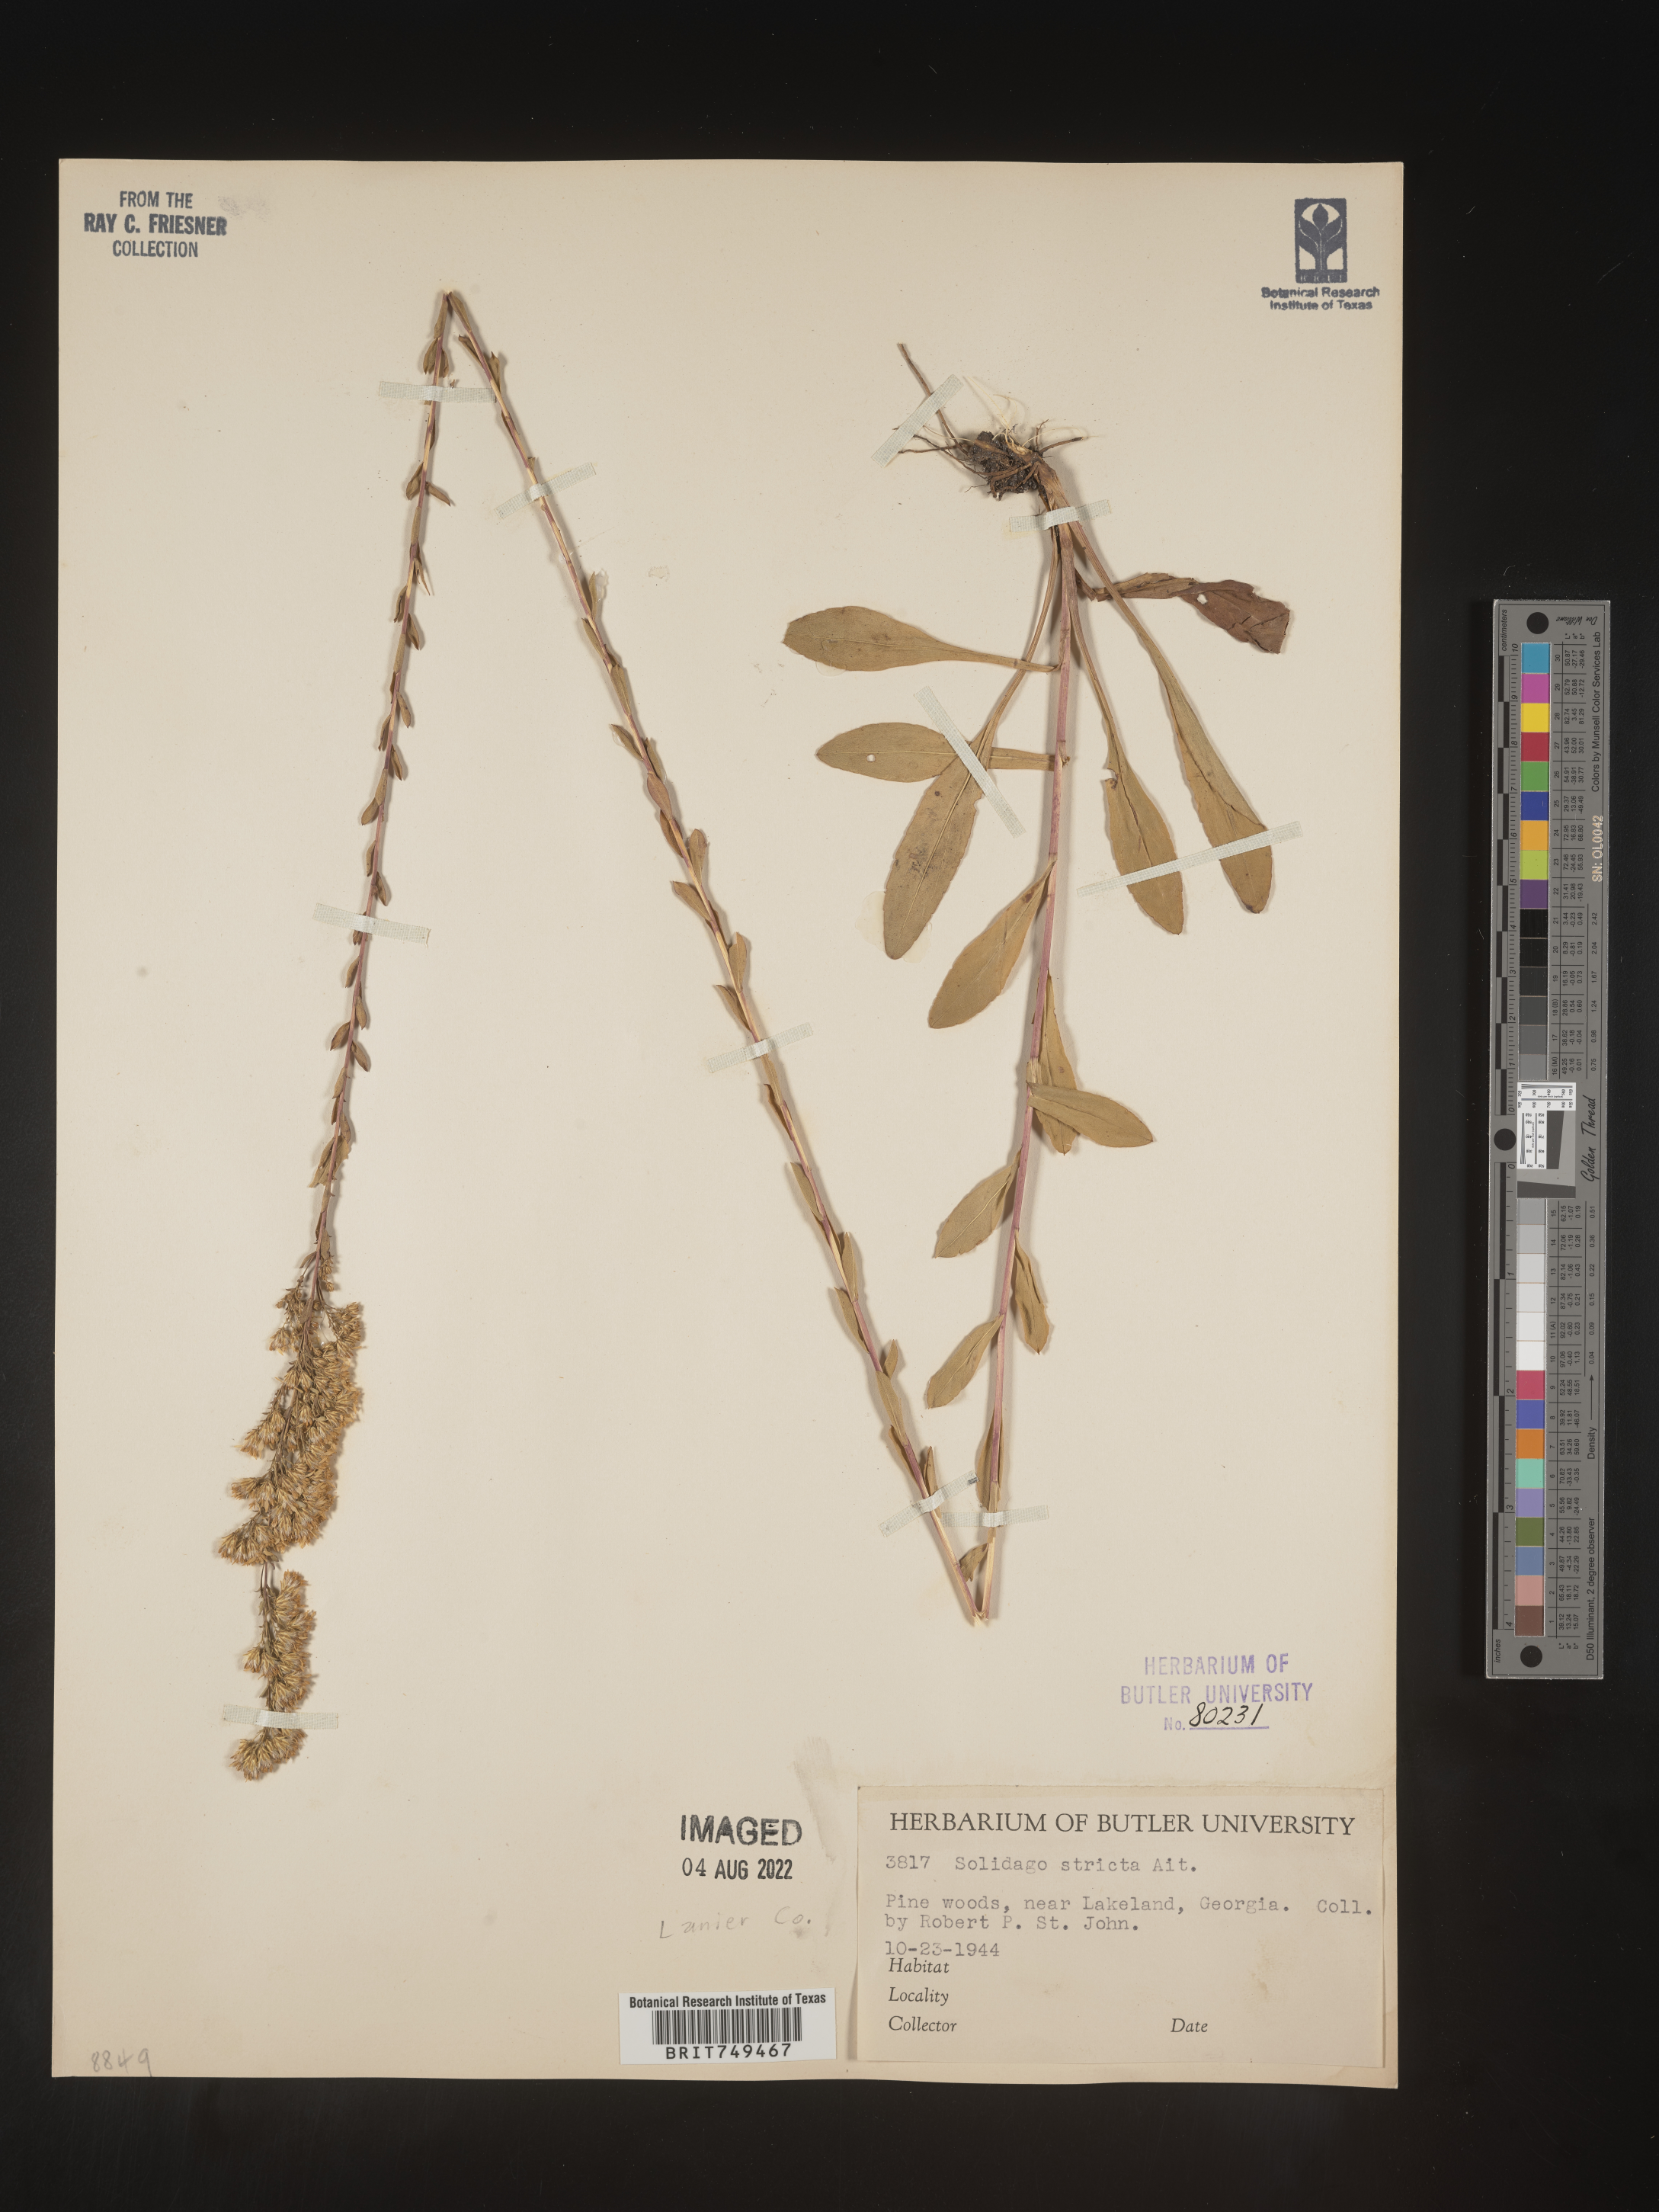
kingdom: Plantae
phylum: Tracheophyta
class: Magnoliopsida
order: Asterales
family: Asteraceae
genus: Solidago
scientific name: Solidago stricta
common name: Pine barren bog goldenrod
